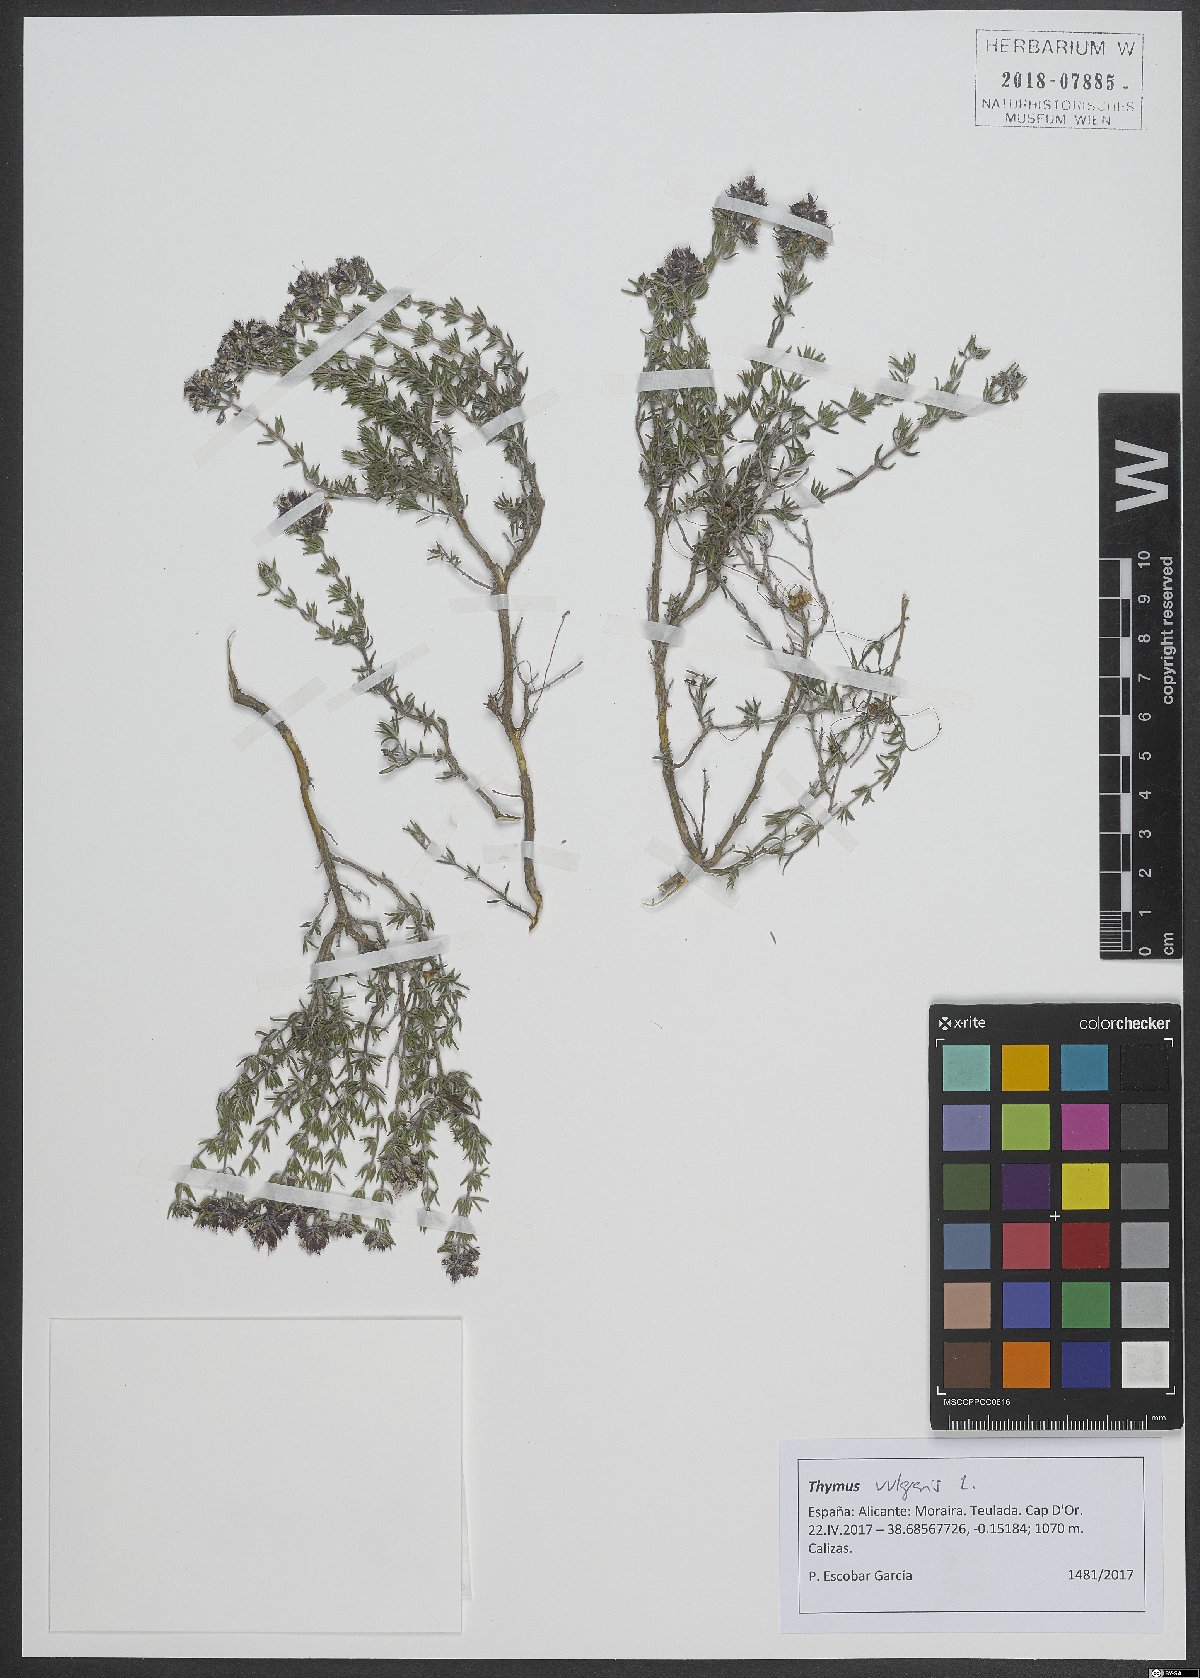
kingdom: Plantae
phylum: Tracheophyta
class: Magnoliopsida
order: Lamiales
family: Lamiaceae
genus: Thymus
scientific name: Thymus vulgaris
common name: Garden thyme
